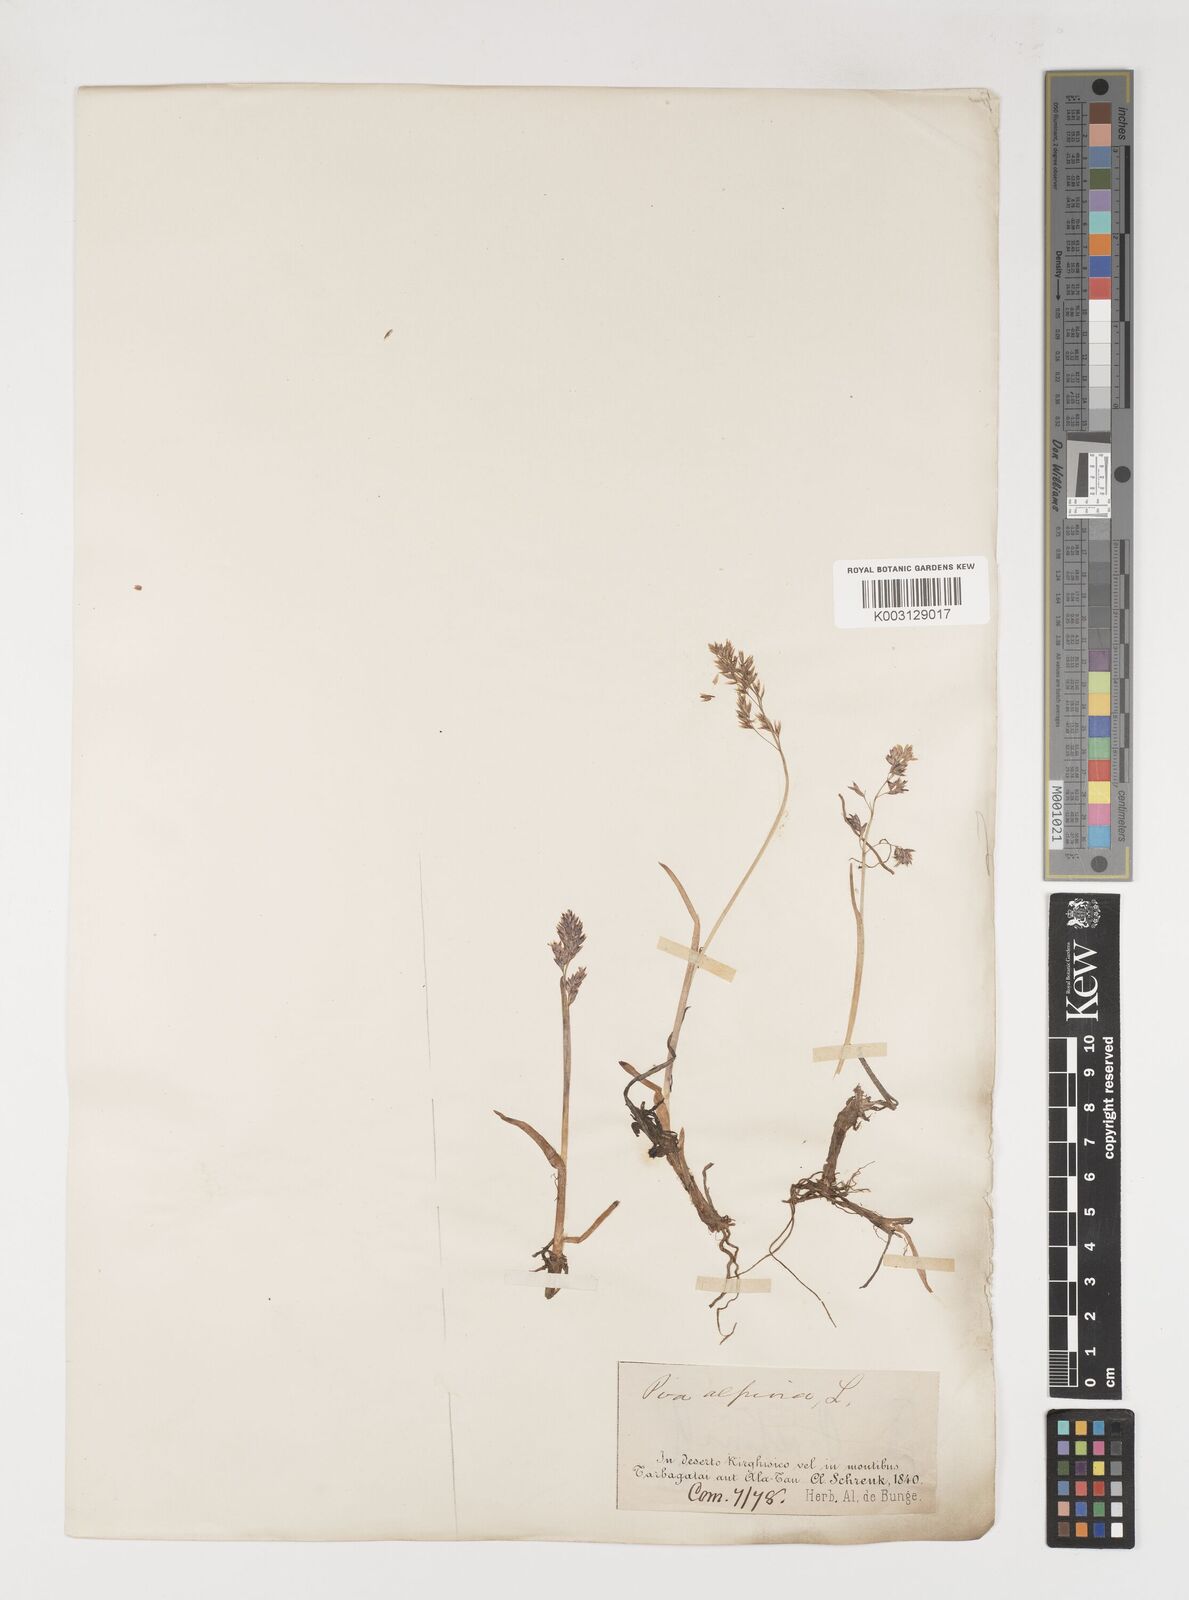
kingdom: Plantae
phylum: Tracheophyta
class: Liliopsida
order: Poales
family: Poaceae
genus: Poa
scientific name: Poa alpina
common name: Alpine bluegrass
